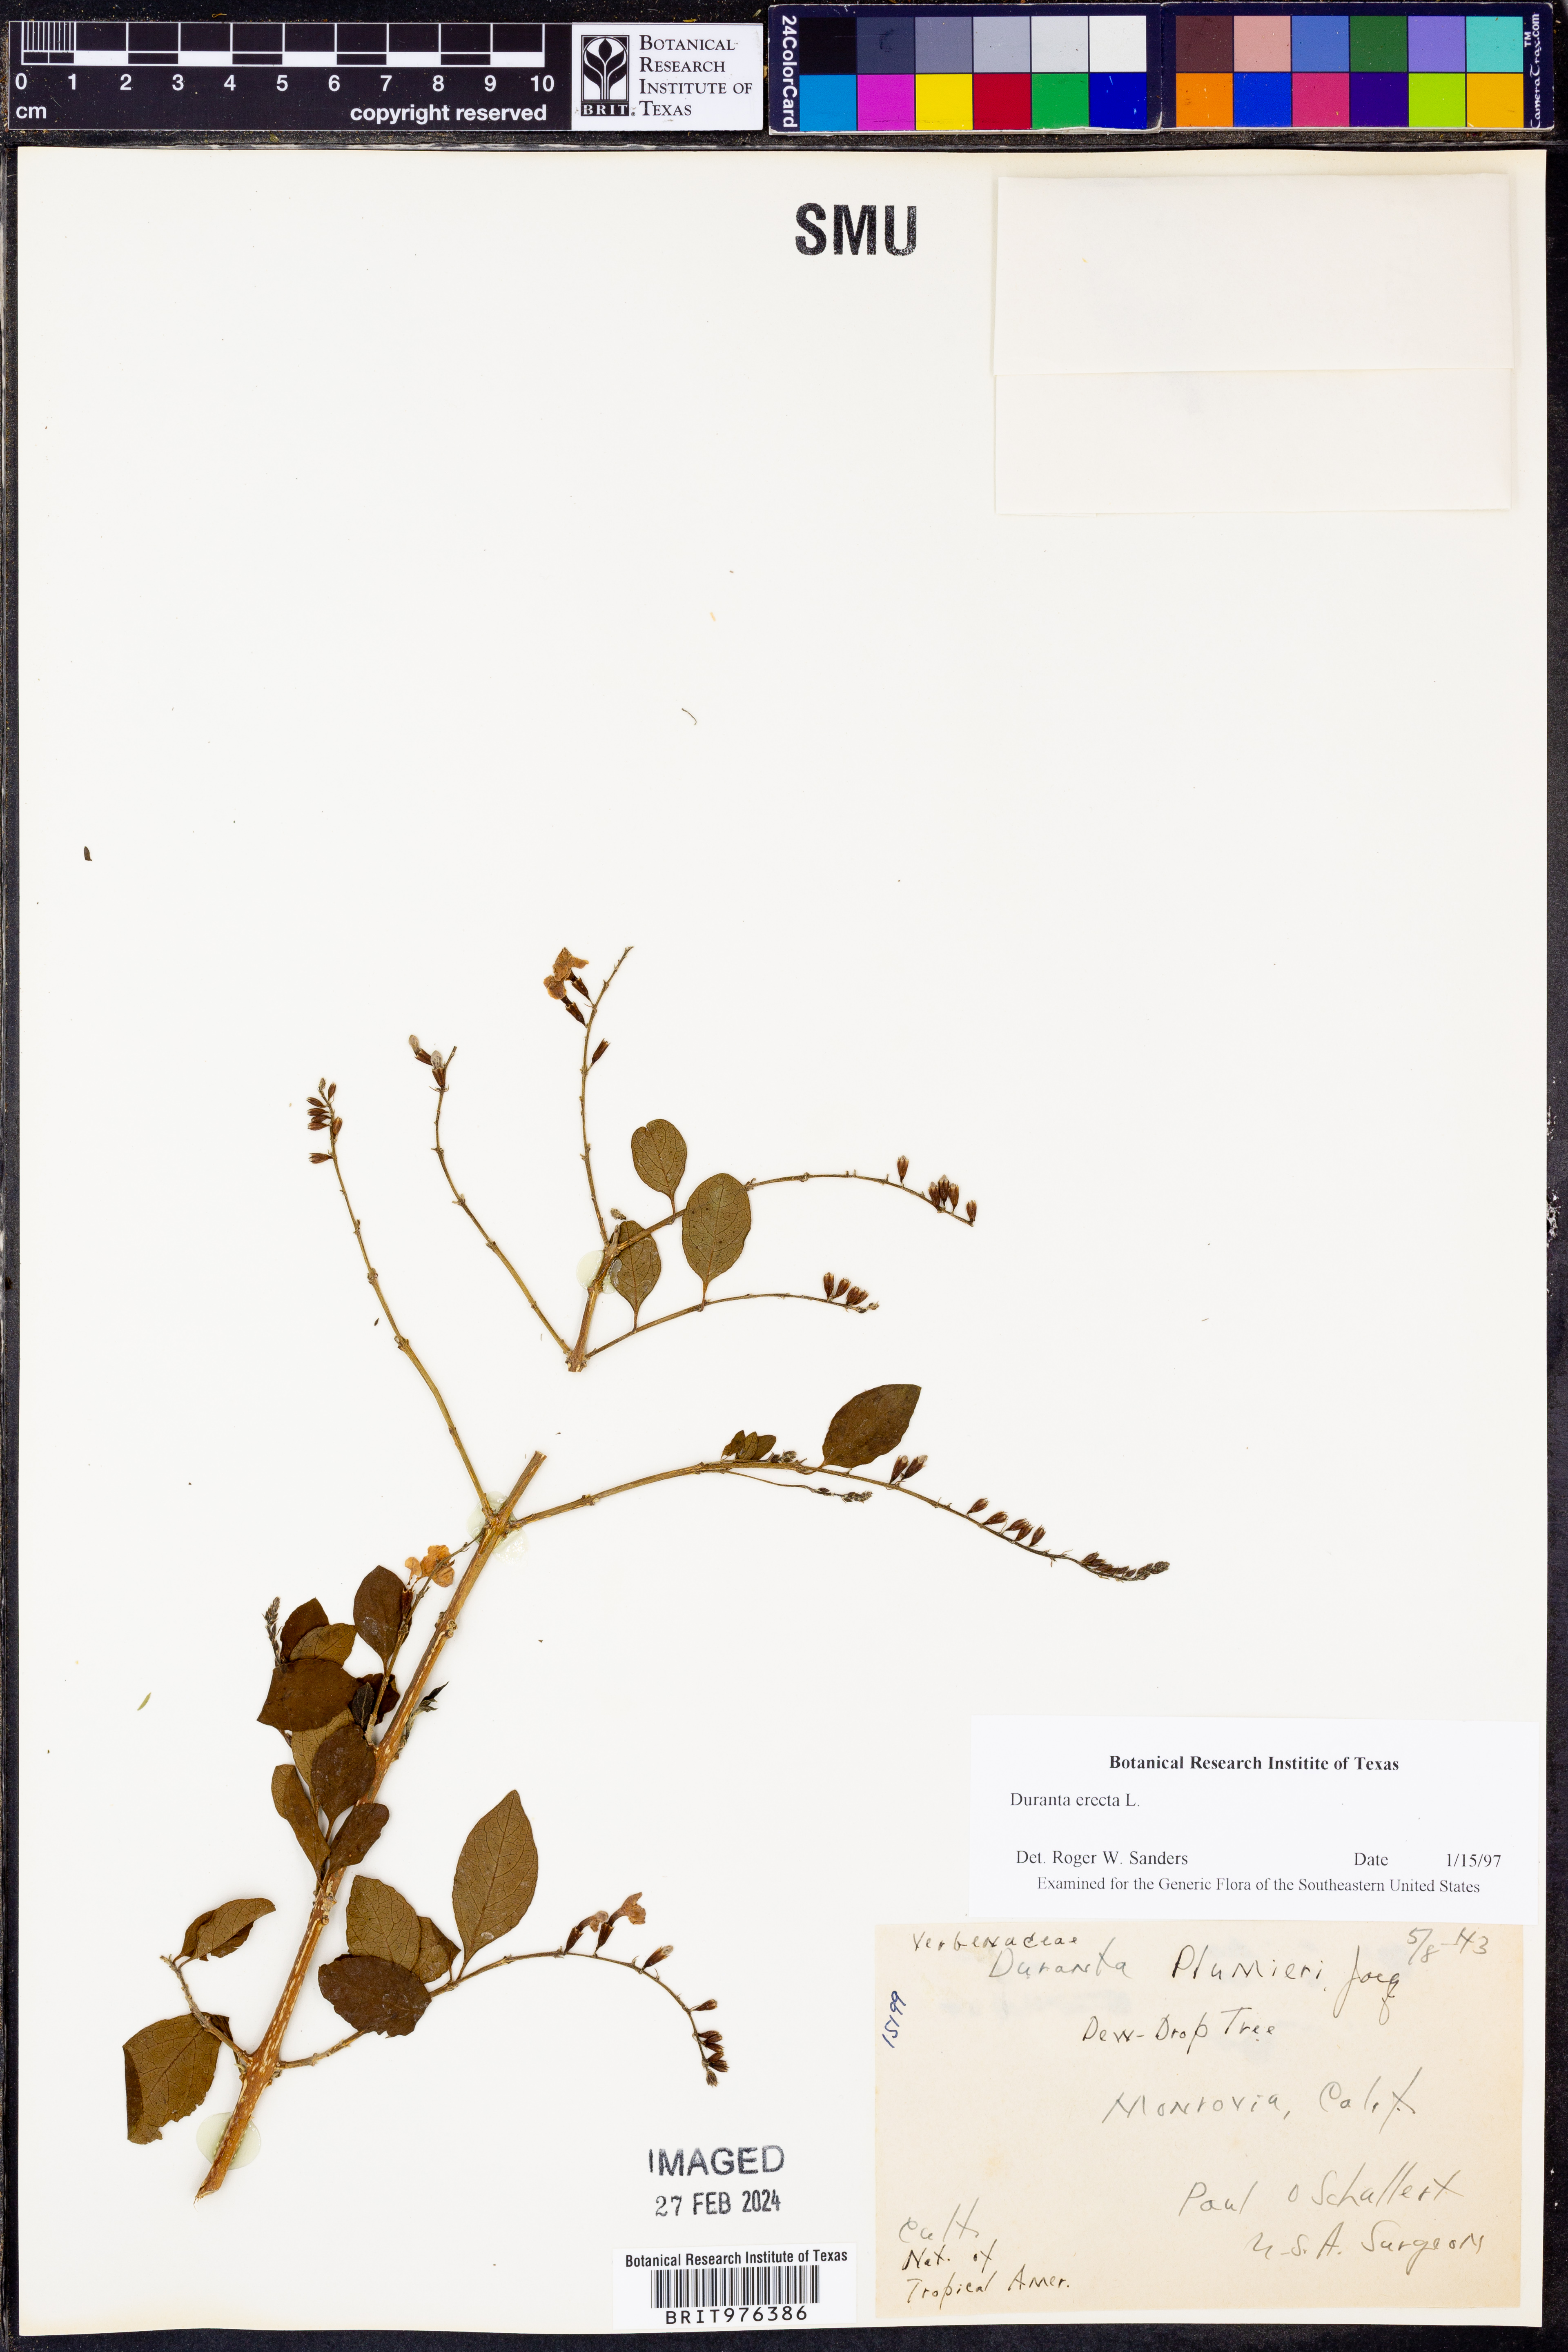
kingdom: Plantae
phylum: Tracheophyta
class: Magnoliopsida
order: Lamiales
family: Verbenaceae
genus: Duranta
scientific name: Duranta
